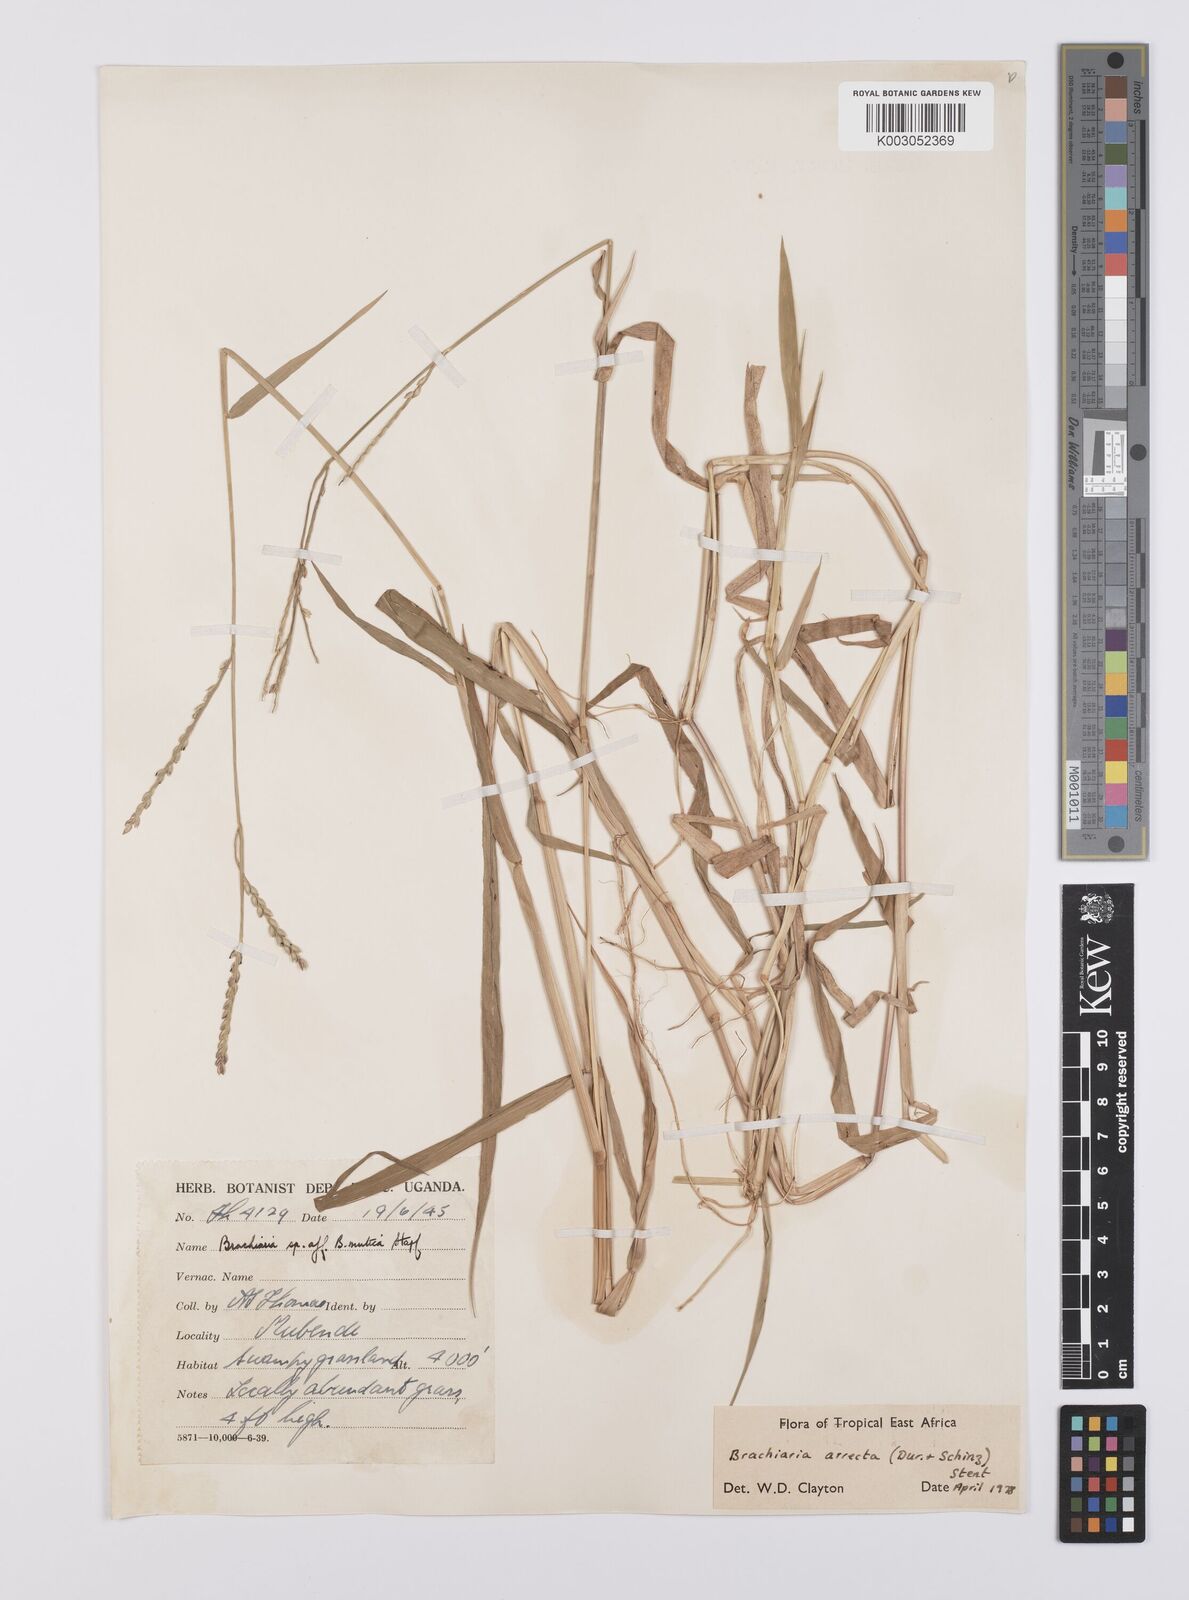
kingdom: Plantae
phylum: Tracheophyta
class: Liliopsida
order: Poales
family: Poaceae
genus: Urochloa
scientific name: Urochloa arrecta
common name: African signalgrass
